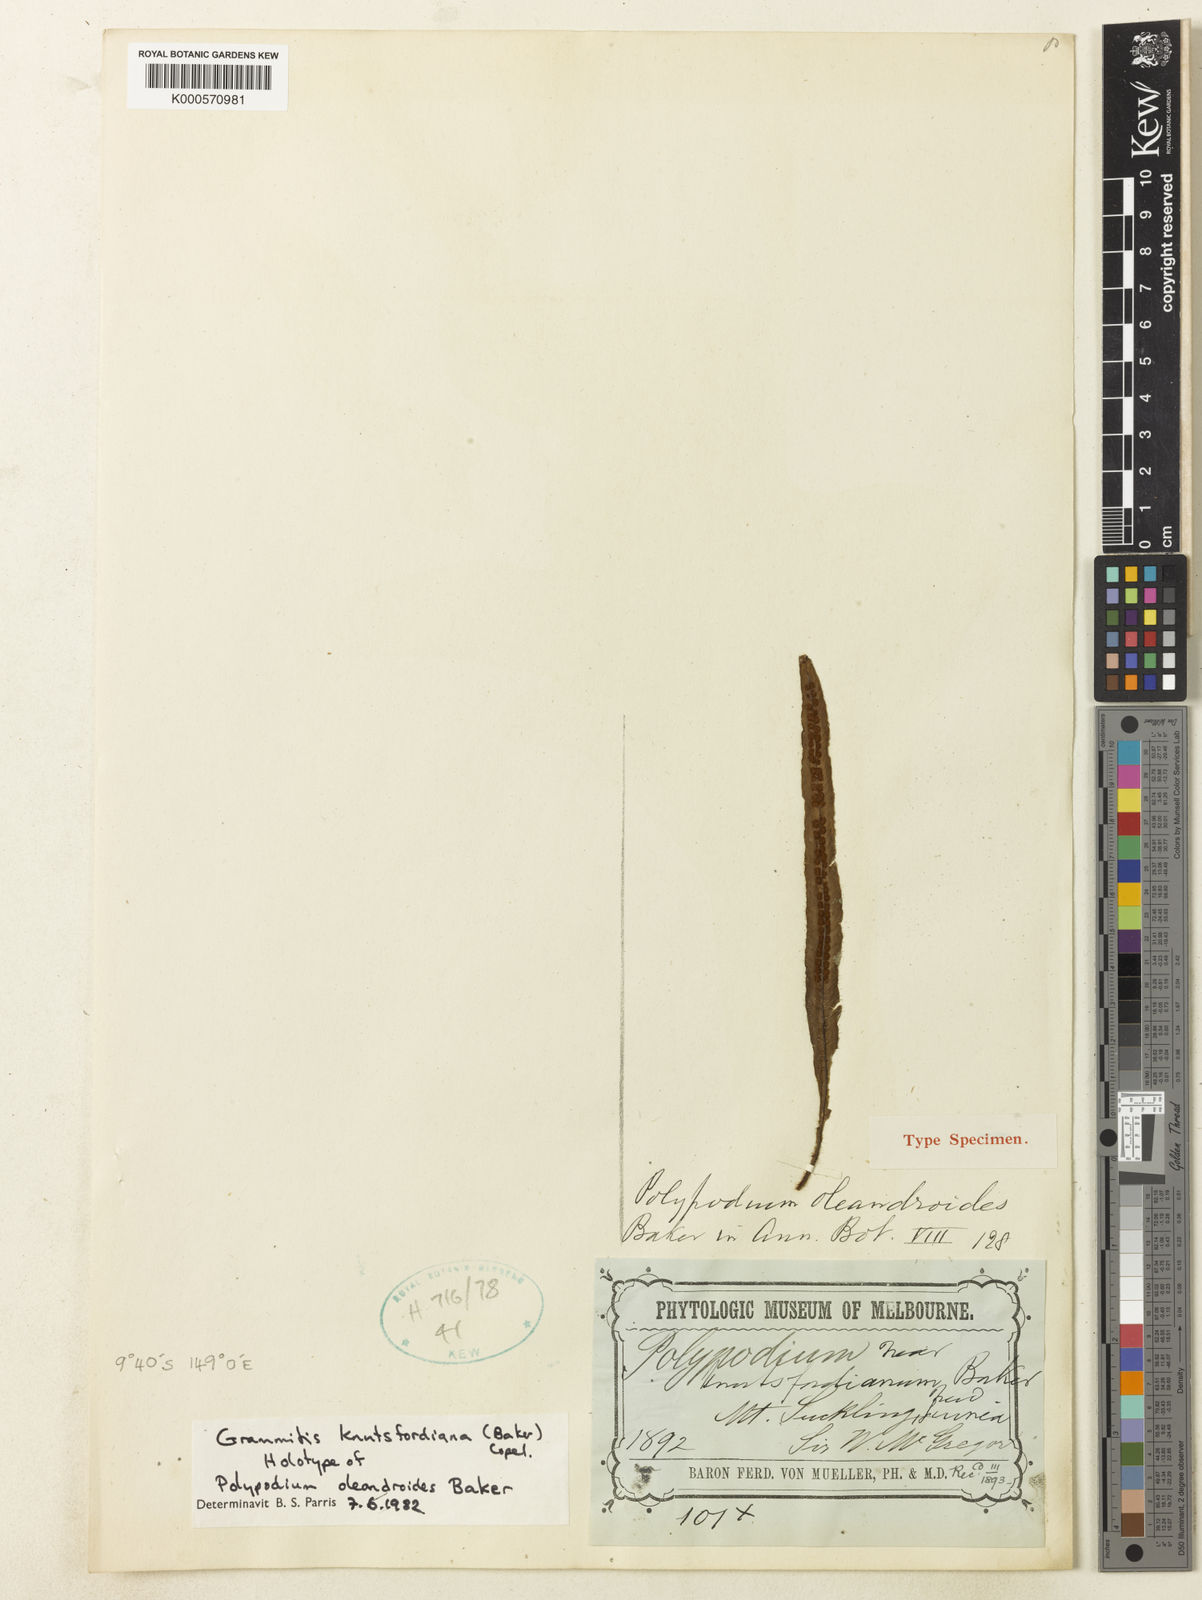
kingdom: Plantae
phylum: Tracheophyta
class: Polypodiopsida
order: Polypodiales
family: Polypodiaceae
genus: Oreogrammitis
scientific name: Oreogrammitis knutsfordiana
